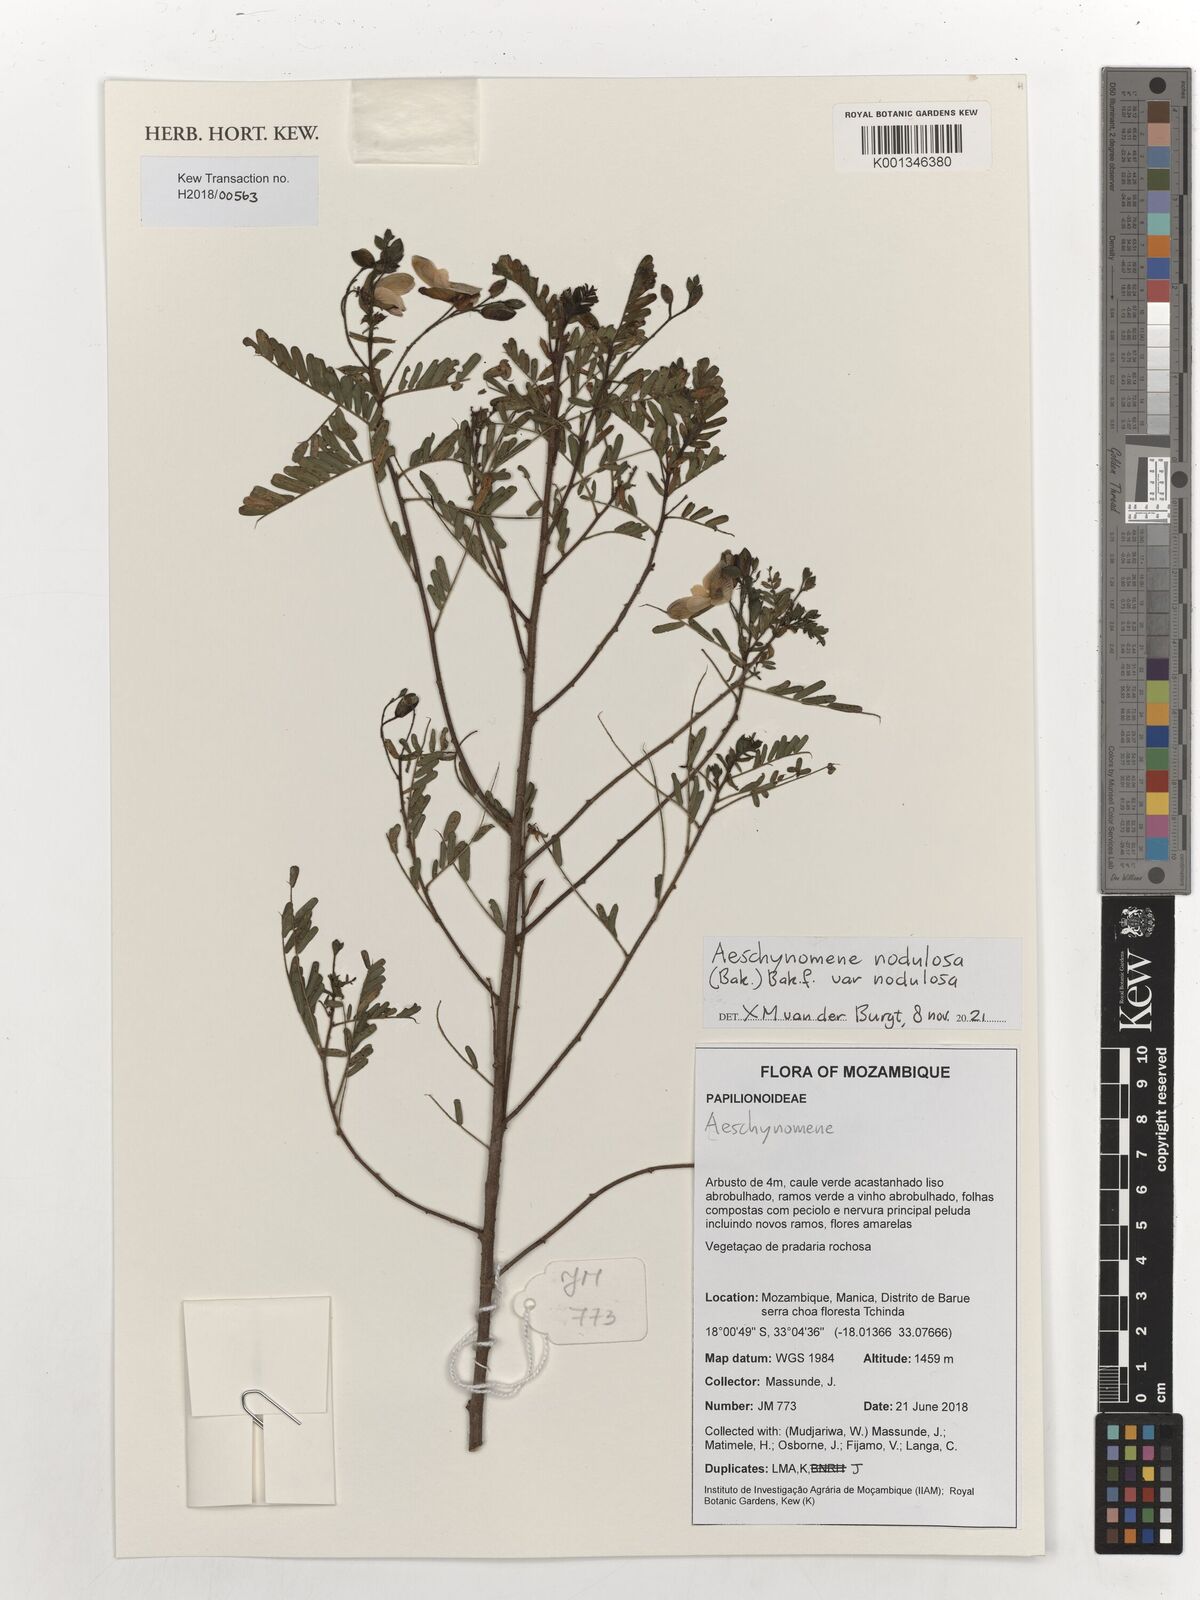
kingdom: Plantae
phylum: Tracheophyta
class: Magnoliopsida
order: Fabales
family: Fabaceae
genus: Aeschynomene
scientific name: Aeschynomene nodulosa
